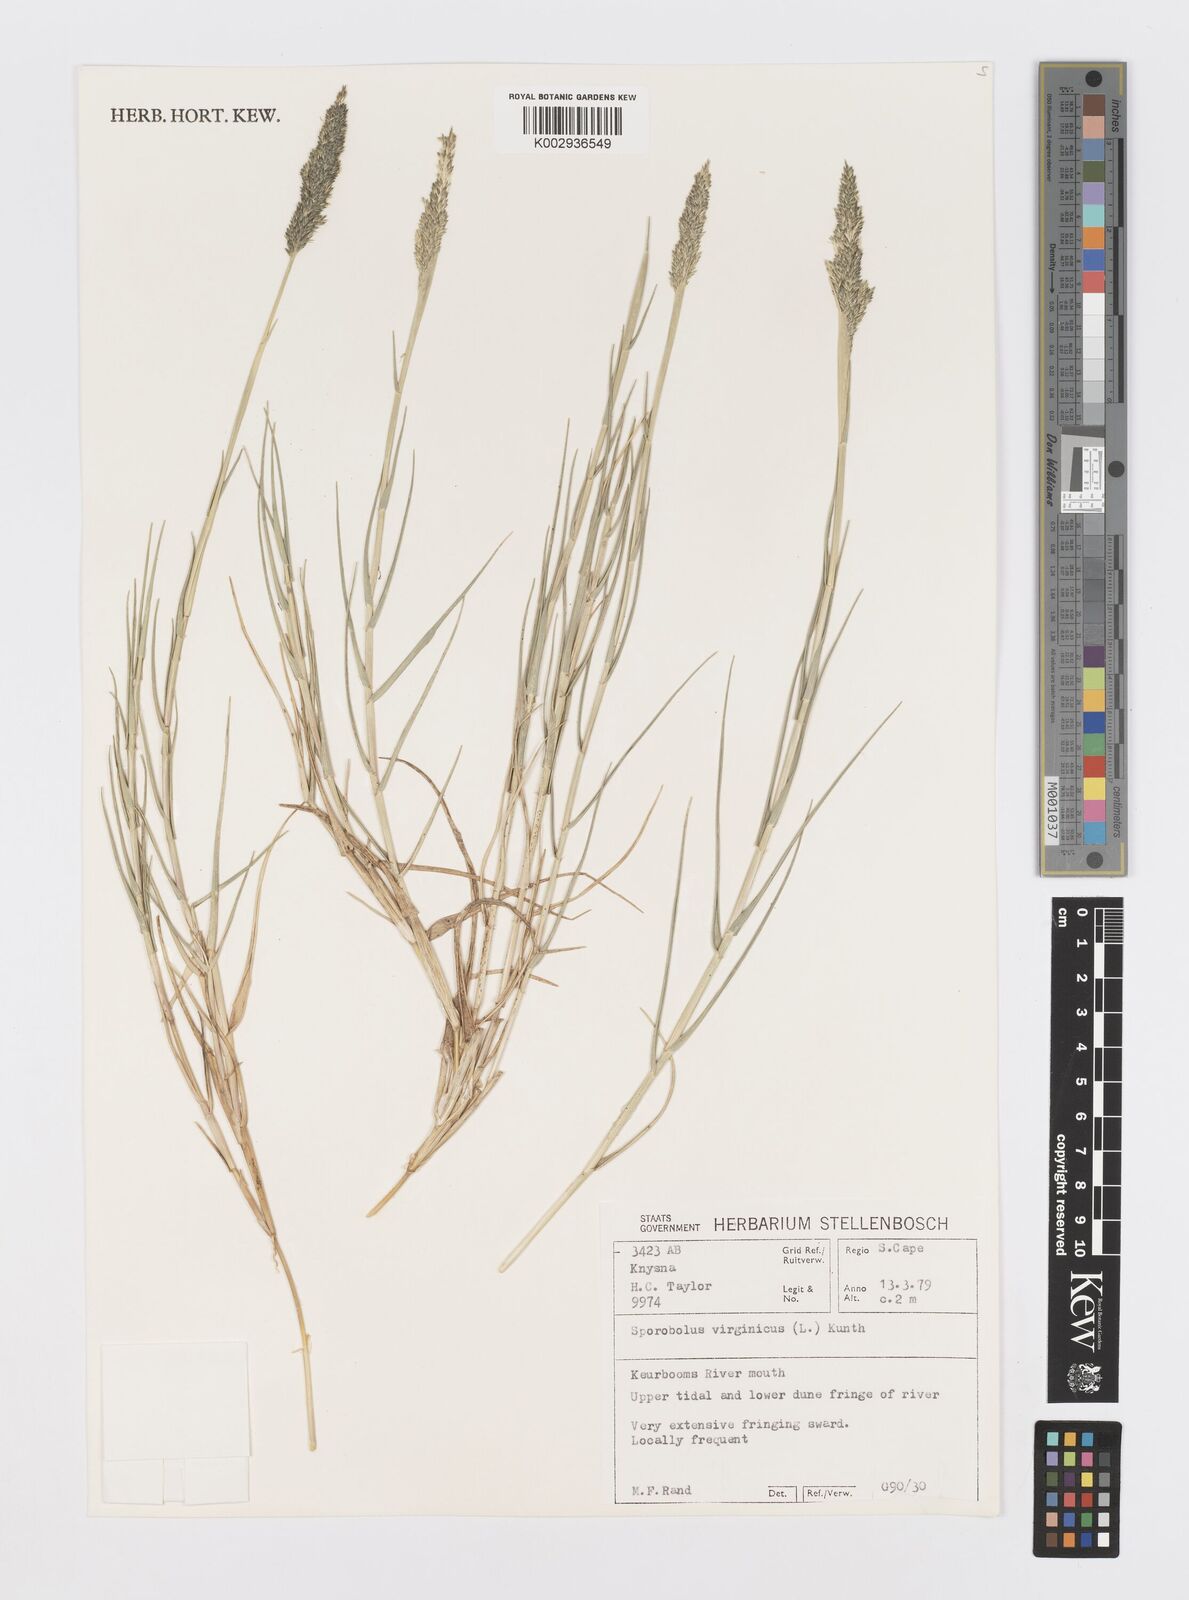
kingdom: Plantae
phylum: Tracheophyta
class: Liliopsida
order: Poales
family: Poaceae
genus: Sporobolus
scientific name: Sporobolus virginicus
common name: Beach dropseed
